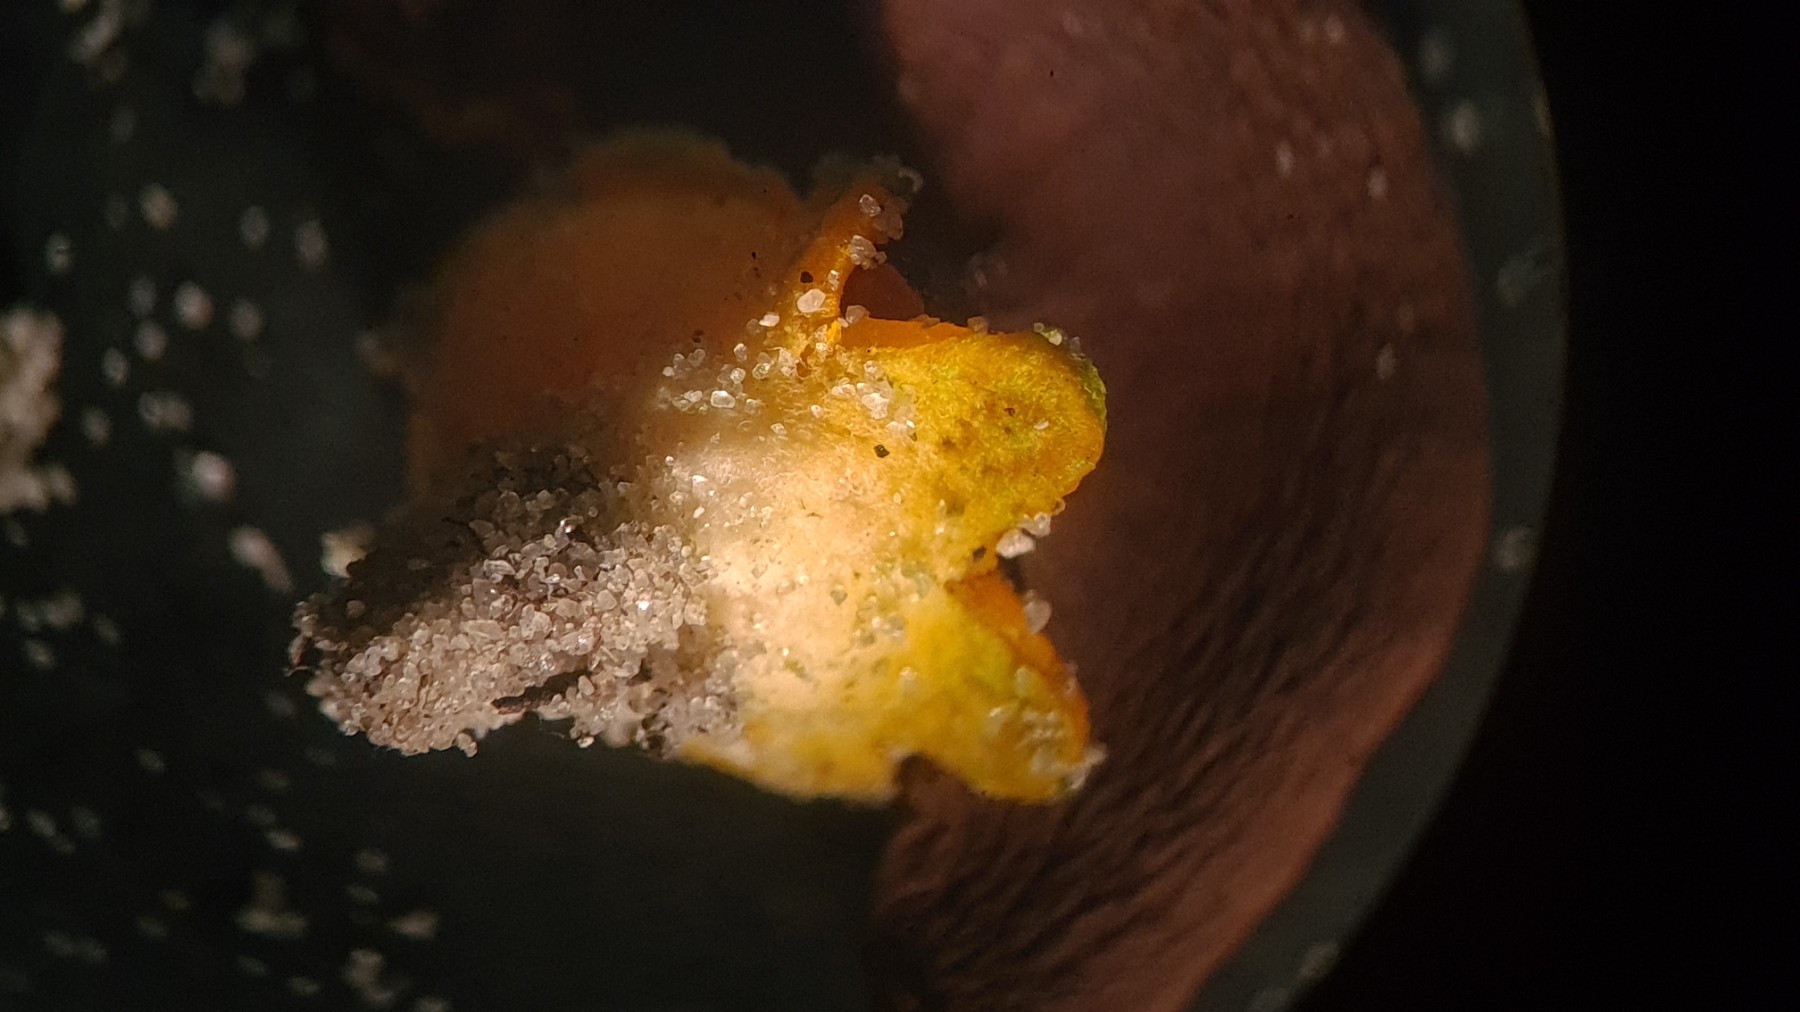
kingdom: Fungi
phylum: Ascomycota
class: Pezizomycetes
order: Pezizales
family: Pyronemataceae
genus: Neottiella
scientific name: Neottiella
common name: mosbæger
